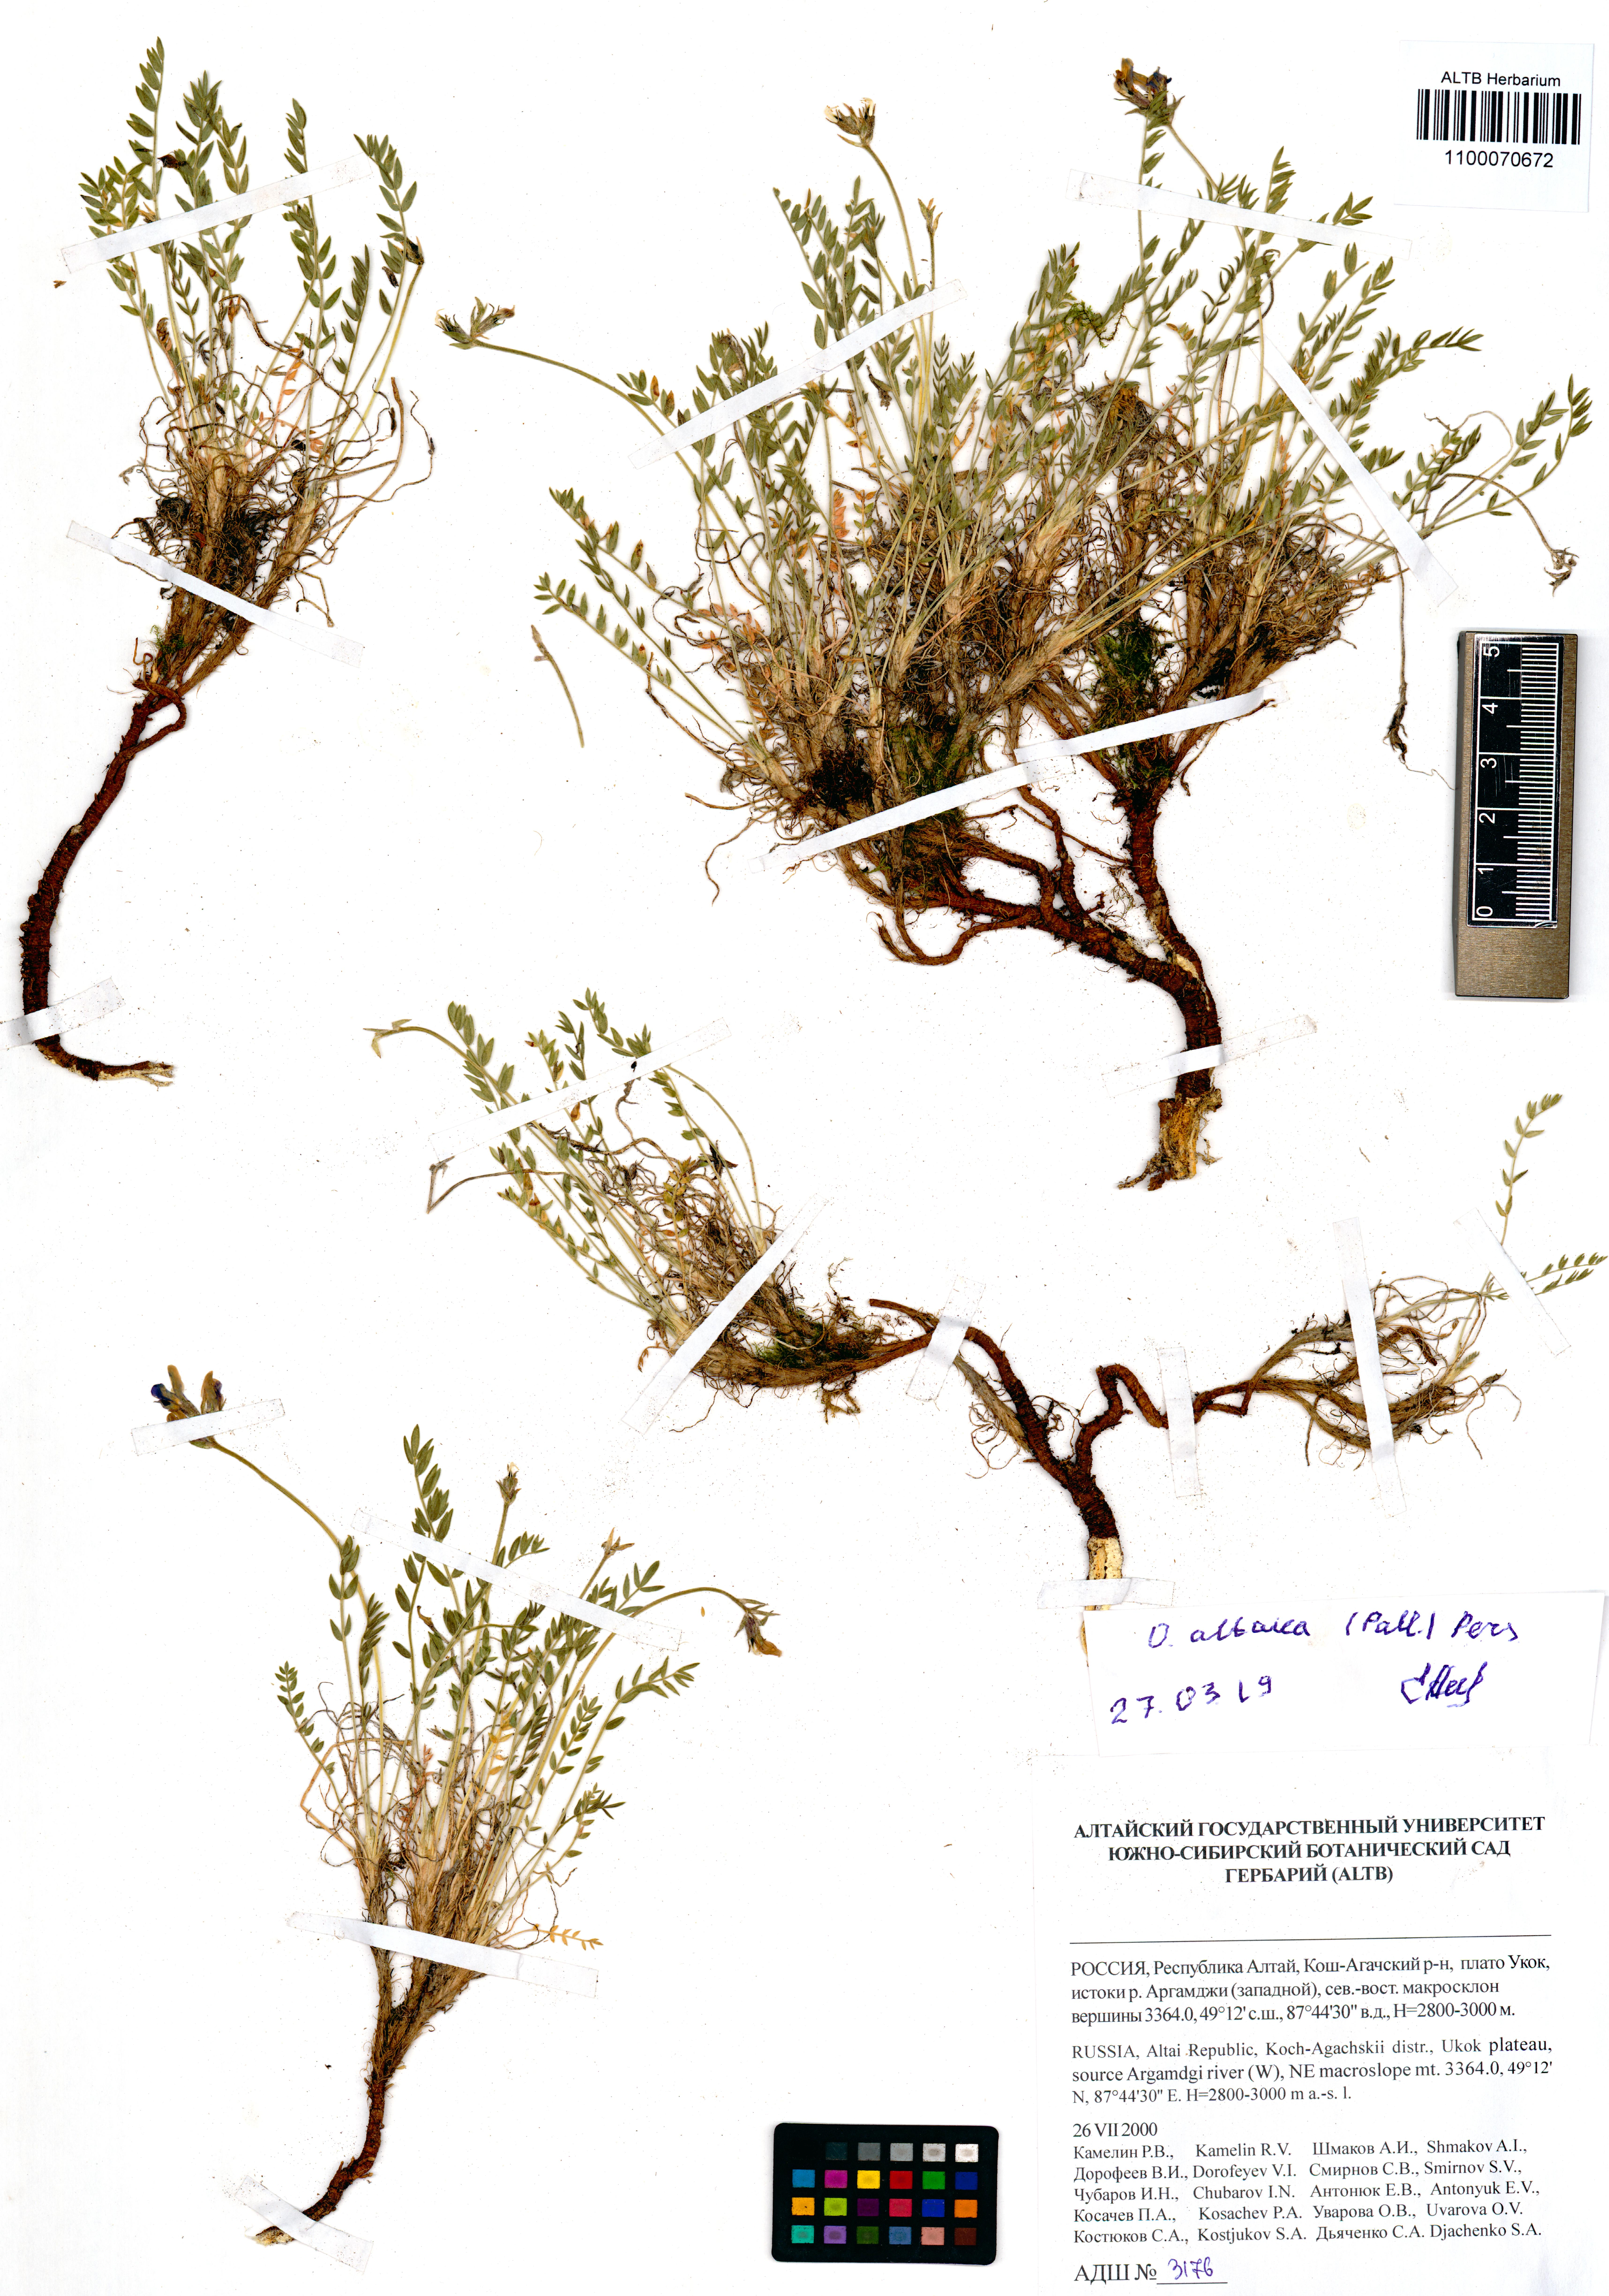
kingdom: Plantae
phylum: Tracheophyta
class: Magnoliopsida
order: Fabales
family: Fabaceae
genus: Oxytropis
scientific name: Oxytropis altaica
